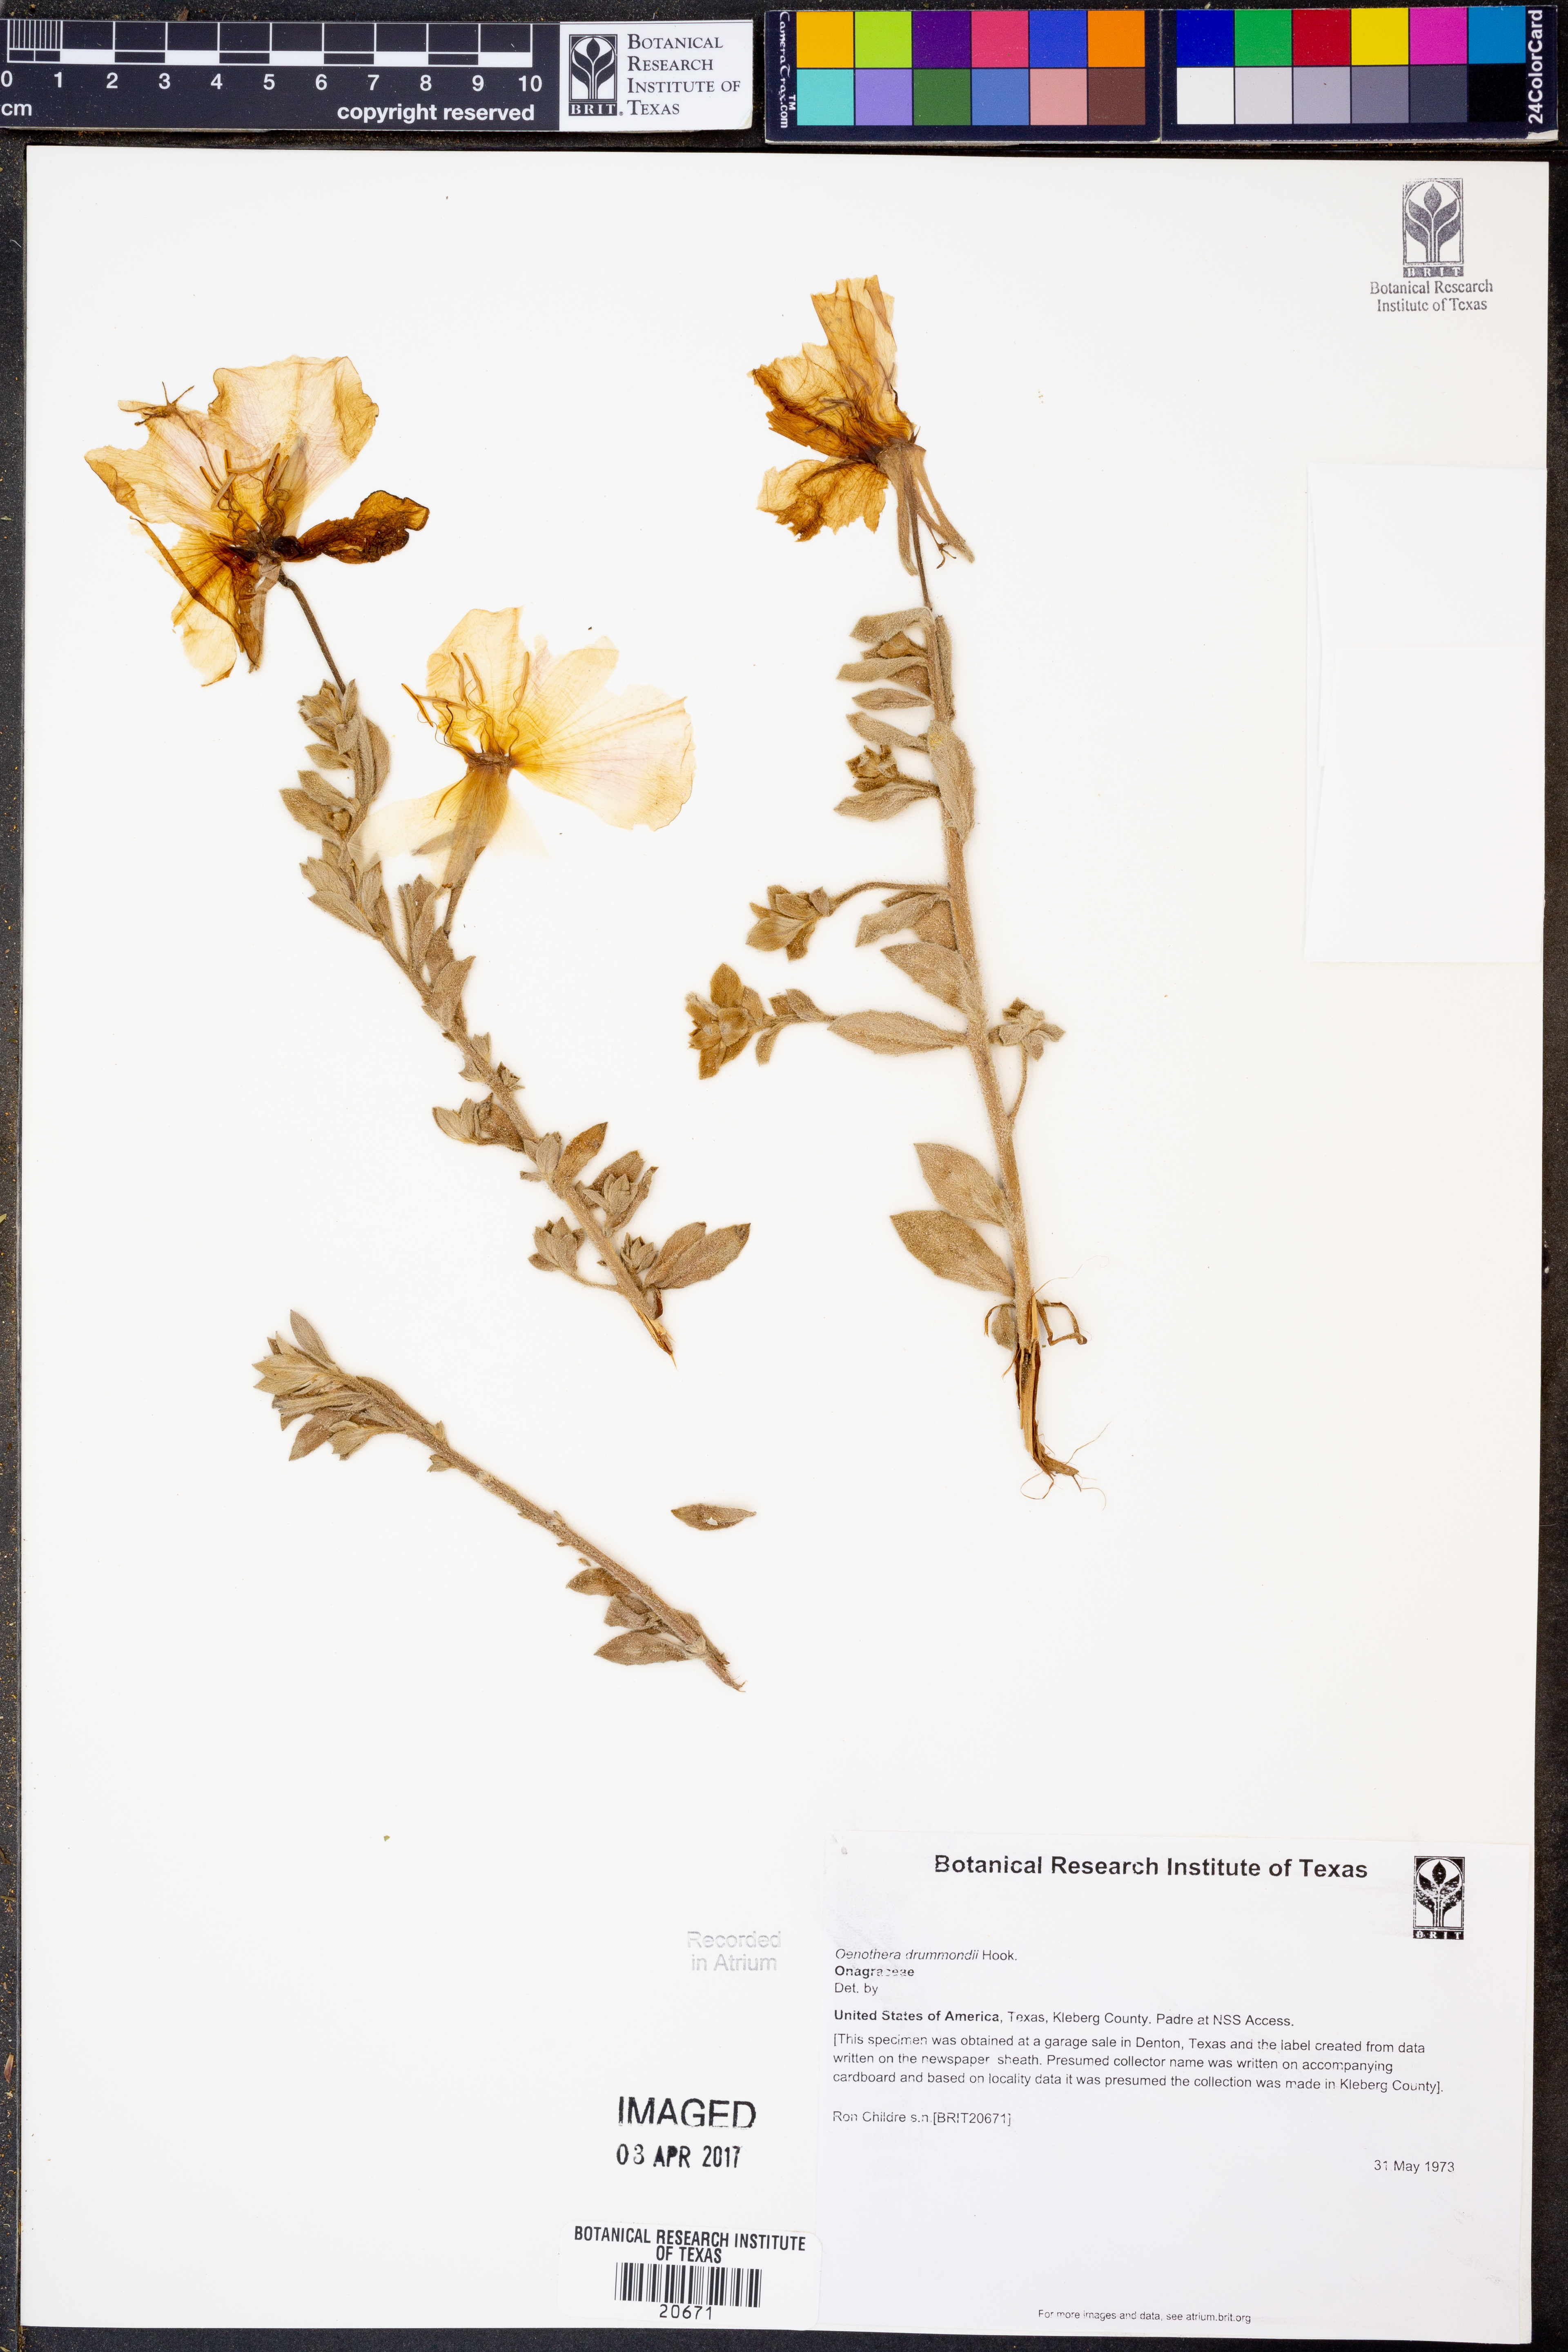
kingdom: Plantae
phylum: Tracheophyta
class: Magnoliopsida
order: Myrtales
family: Onagraceae
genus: Oenothera
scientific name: Oenothera drummondii
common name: Beach evening-primrose
